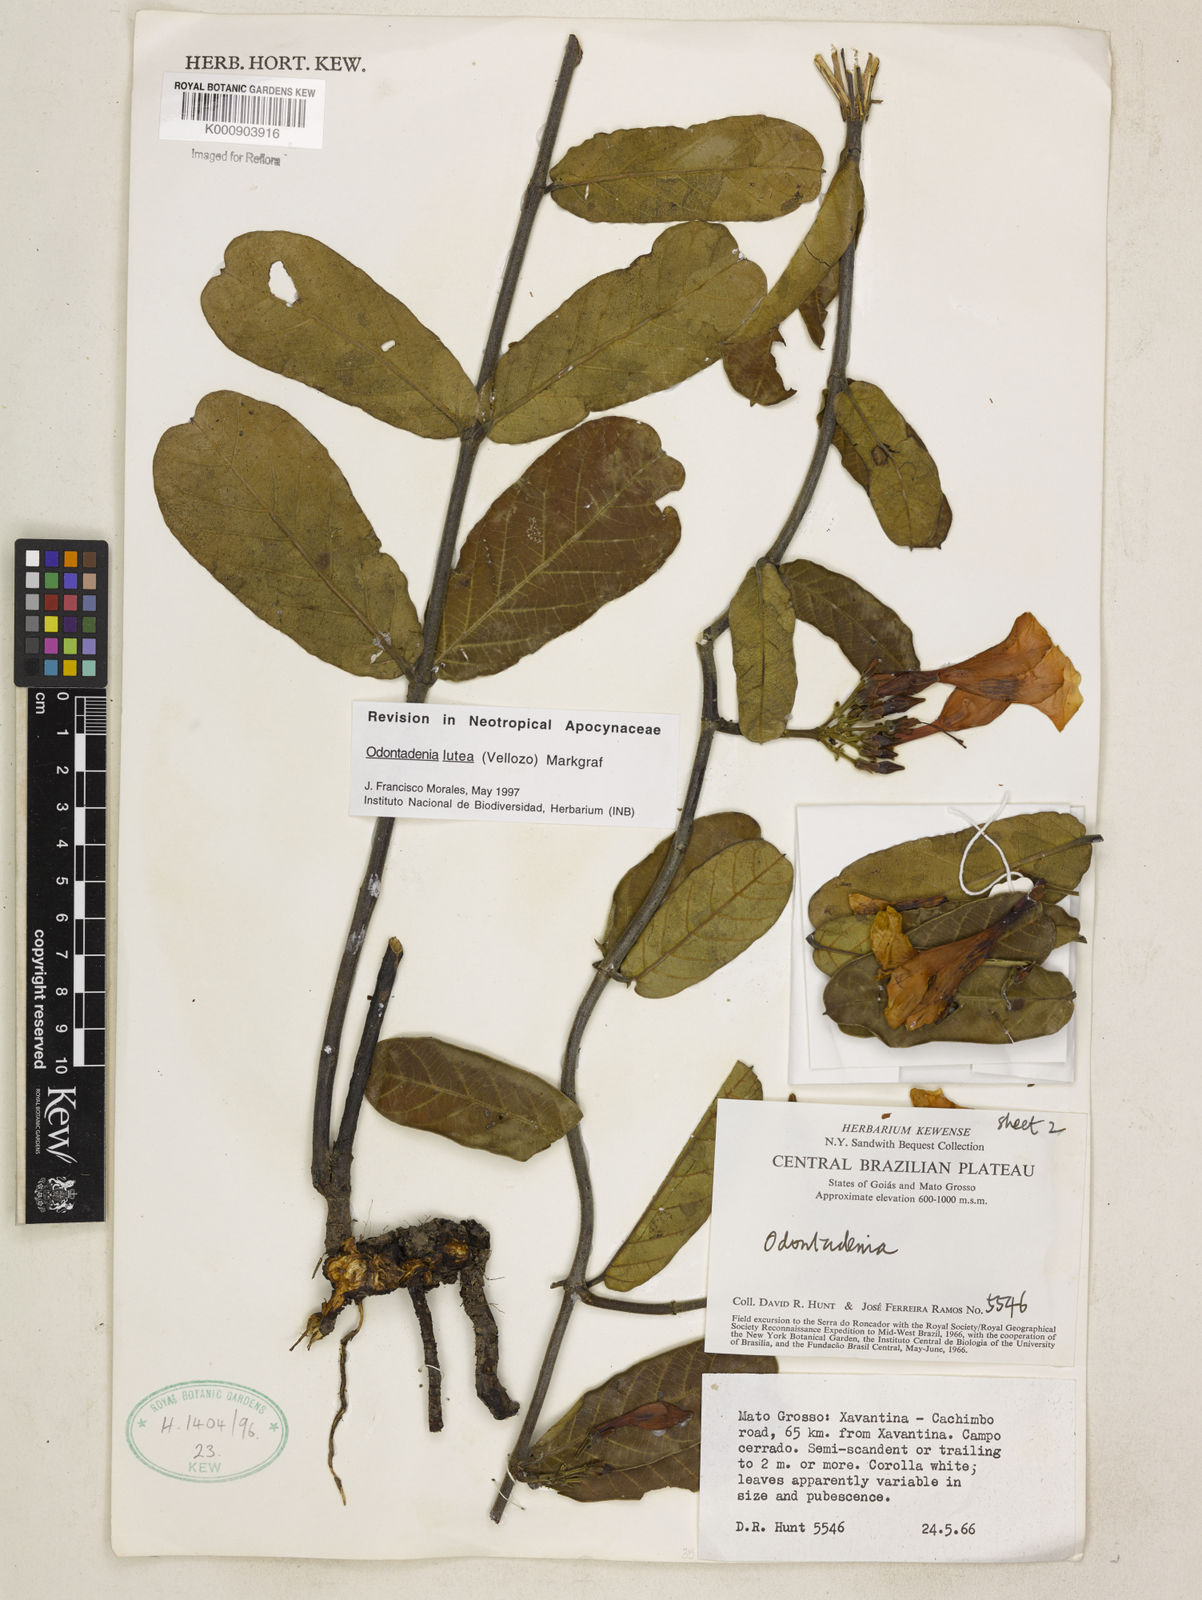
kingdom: Plantae
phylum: Tracheophyta
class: Magnoliopsida
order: Gentianales
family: Apocynaceae
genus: Odontadenia
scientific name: Odontadenia lutea
